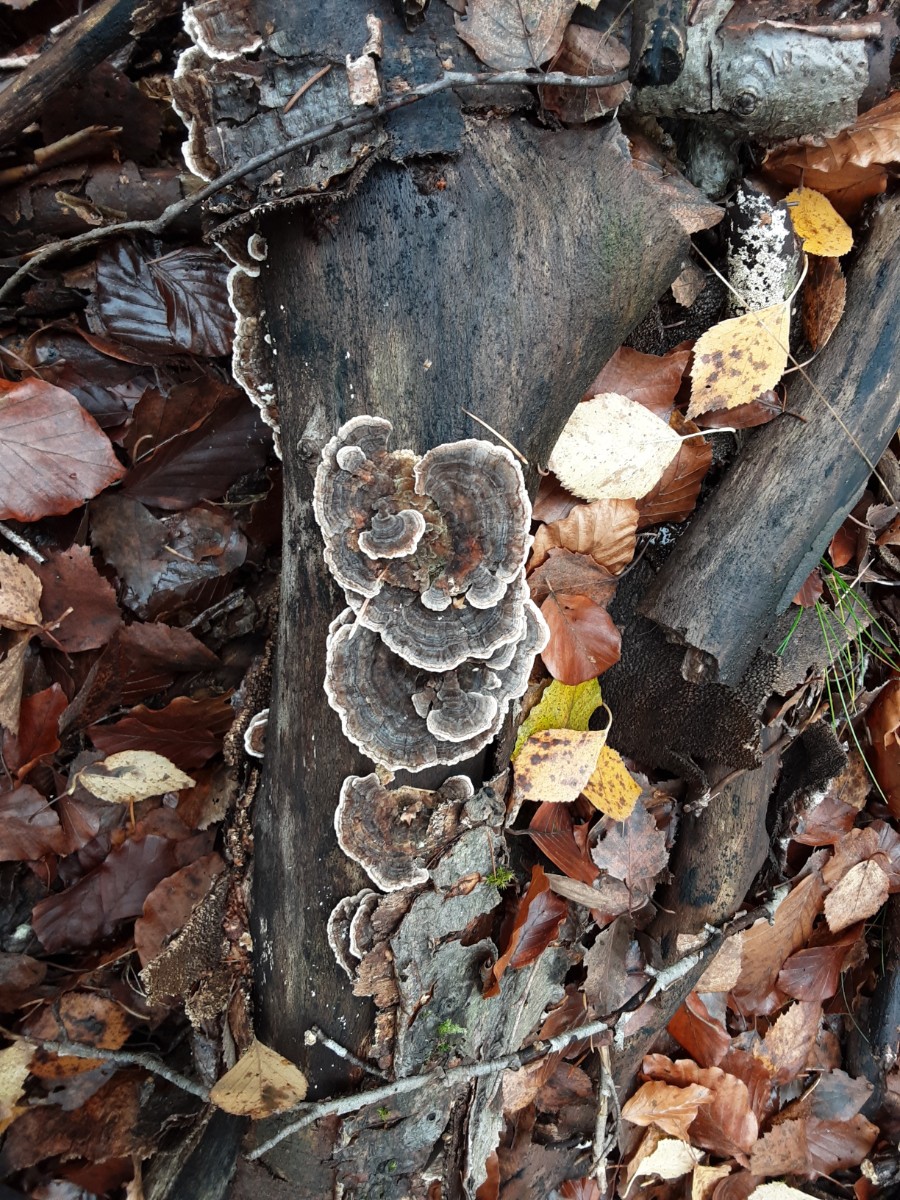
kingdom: Fungi
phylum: Basidiomycota
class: Agaricomycetes
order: Polyporales
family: Polyporaceae
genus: Trametes
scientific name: Trametes versicolor
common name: broget læderporesvamp
